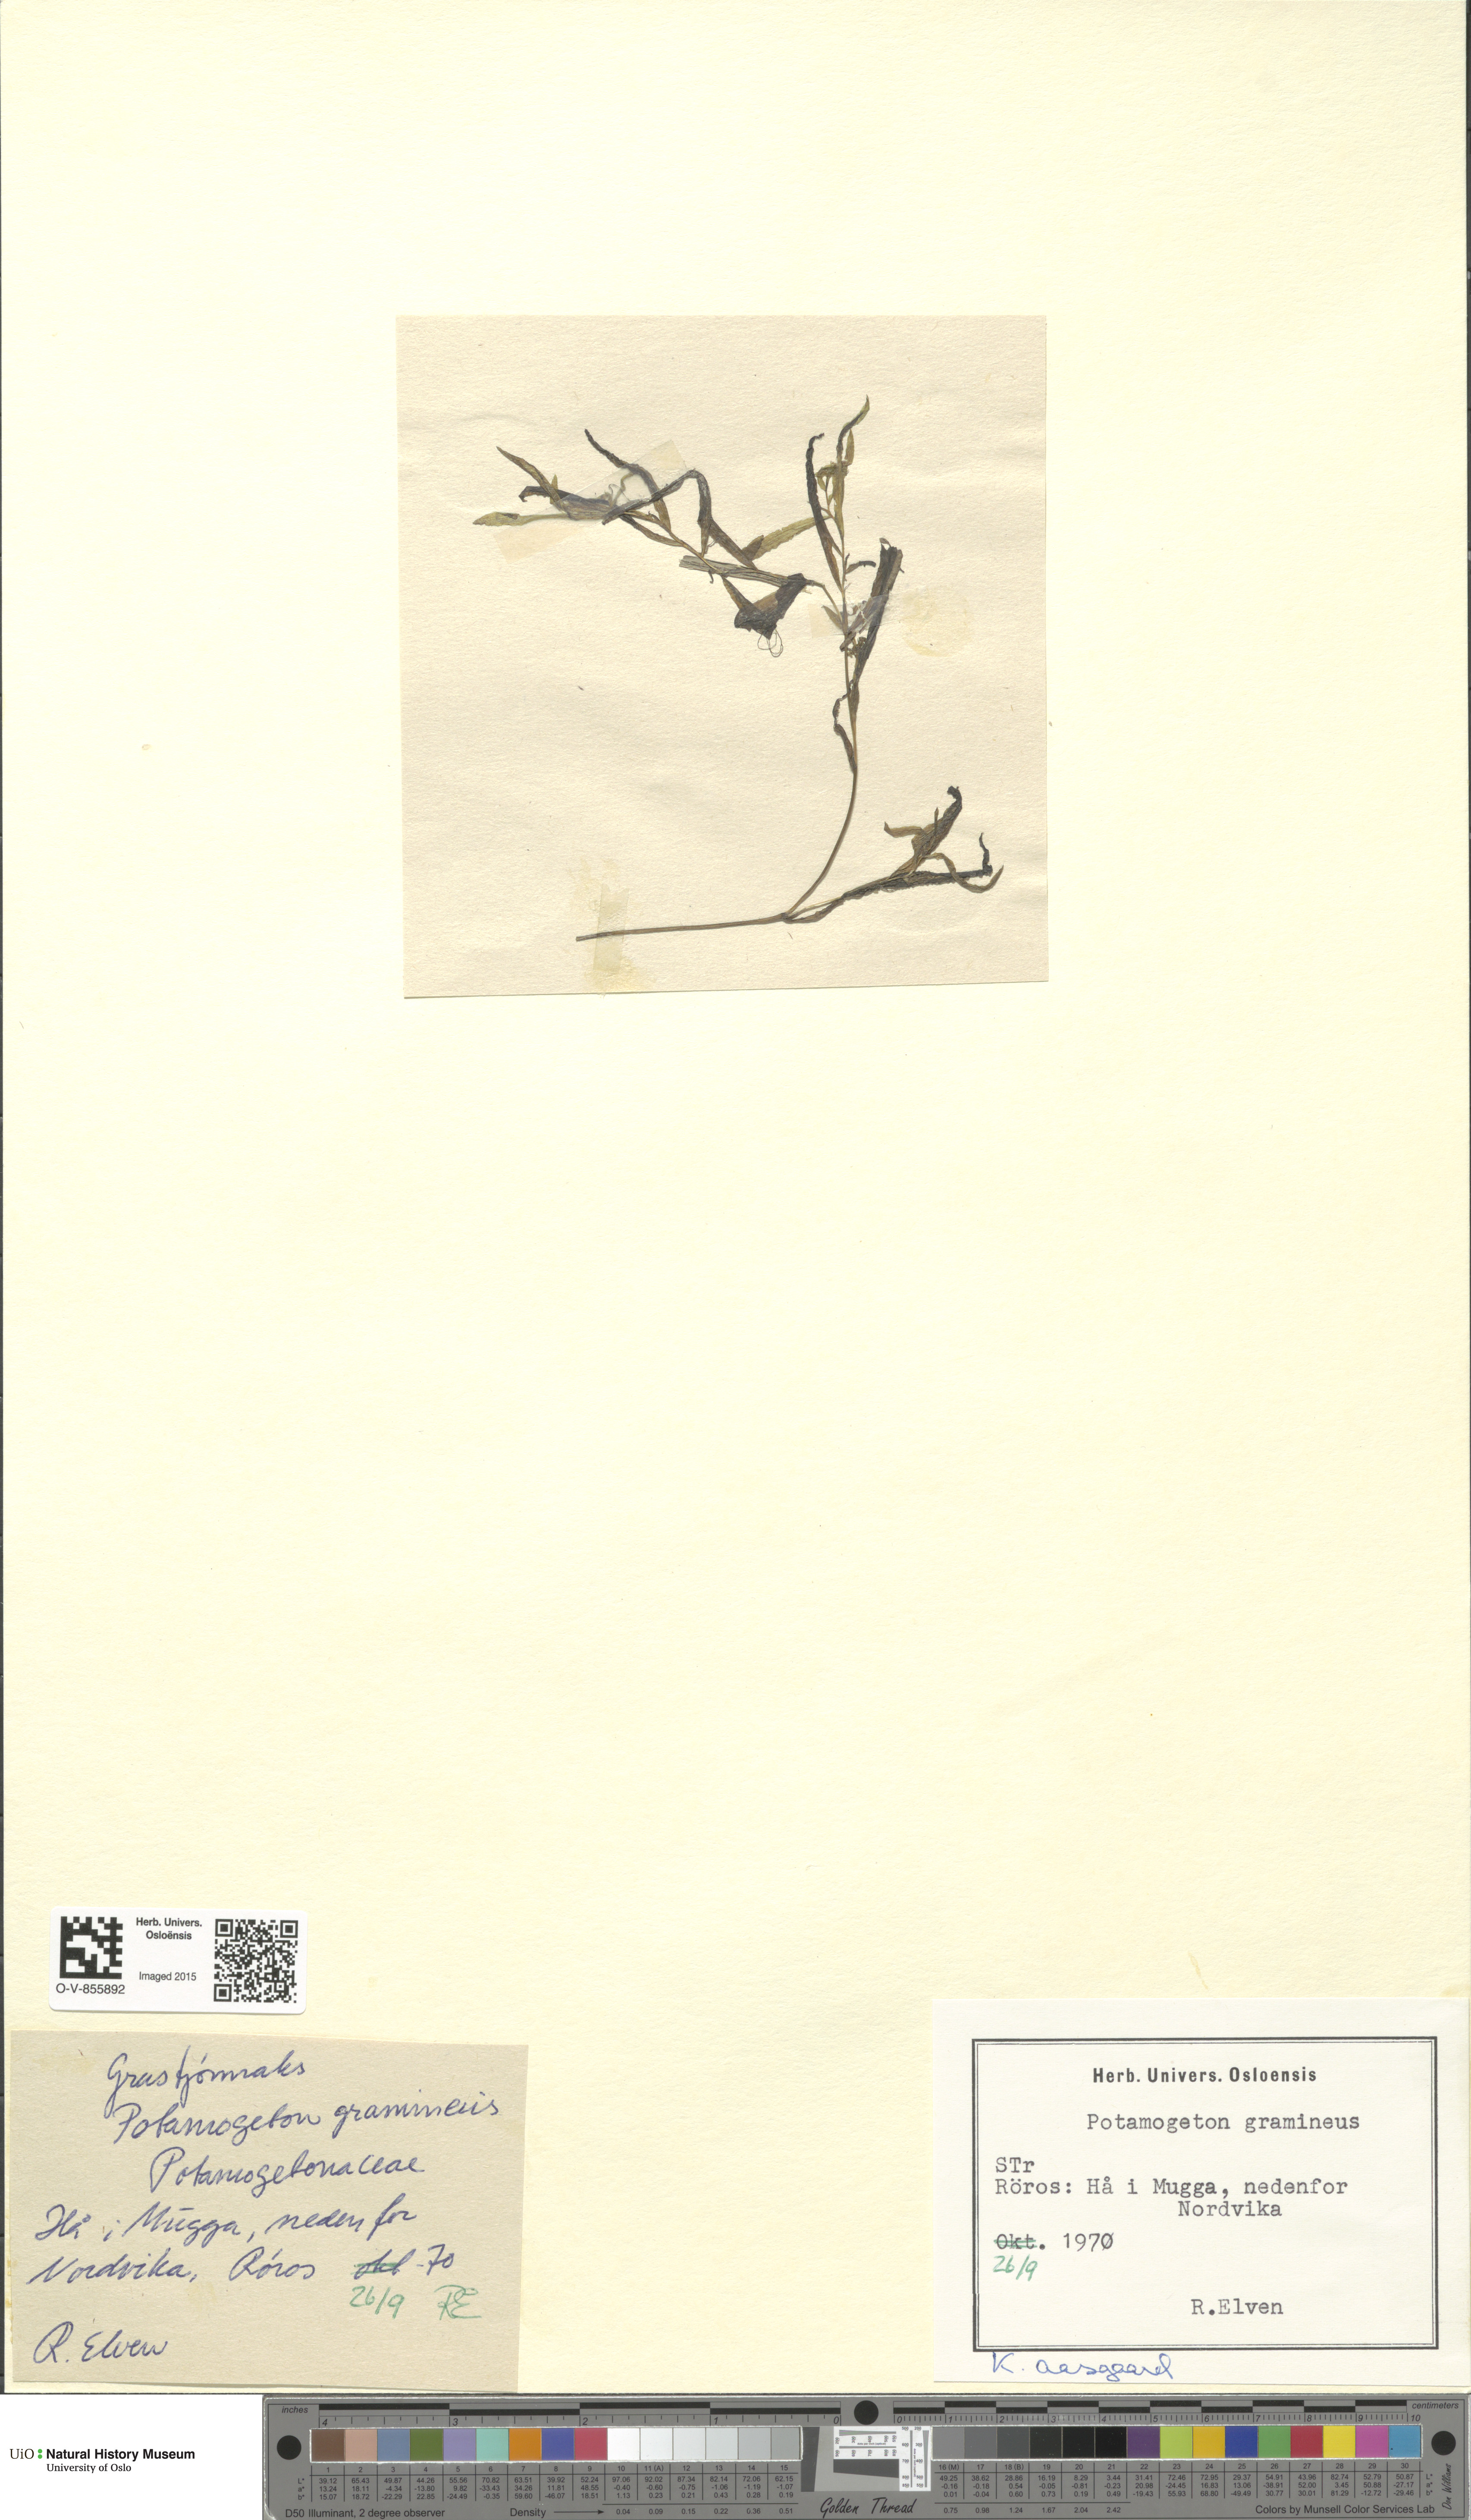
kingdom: Plantae
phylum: Tracheophyta
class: Liliopsida
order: Alismatales
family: Potamogetonaceae
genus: Potamogeton
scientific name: Potamogeton gramineus
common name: Various-leaved pondweed
